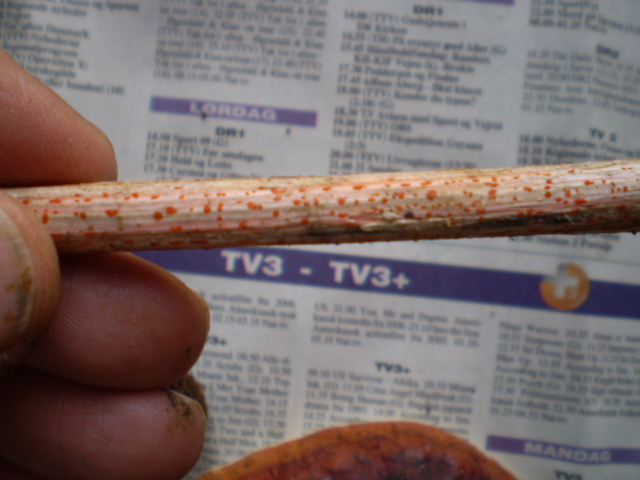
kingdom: Fungi
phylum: Ascomycota
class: Leotiomycetes
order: Helotiales
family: Calloriaceae
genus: Calloria
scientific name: Calloria urticae
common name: nælde-orangeskive
